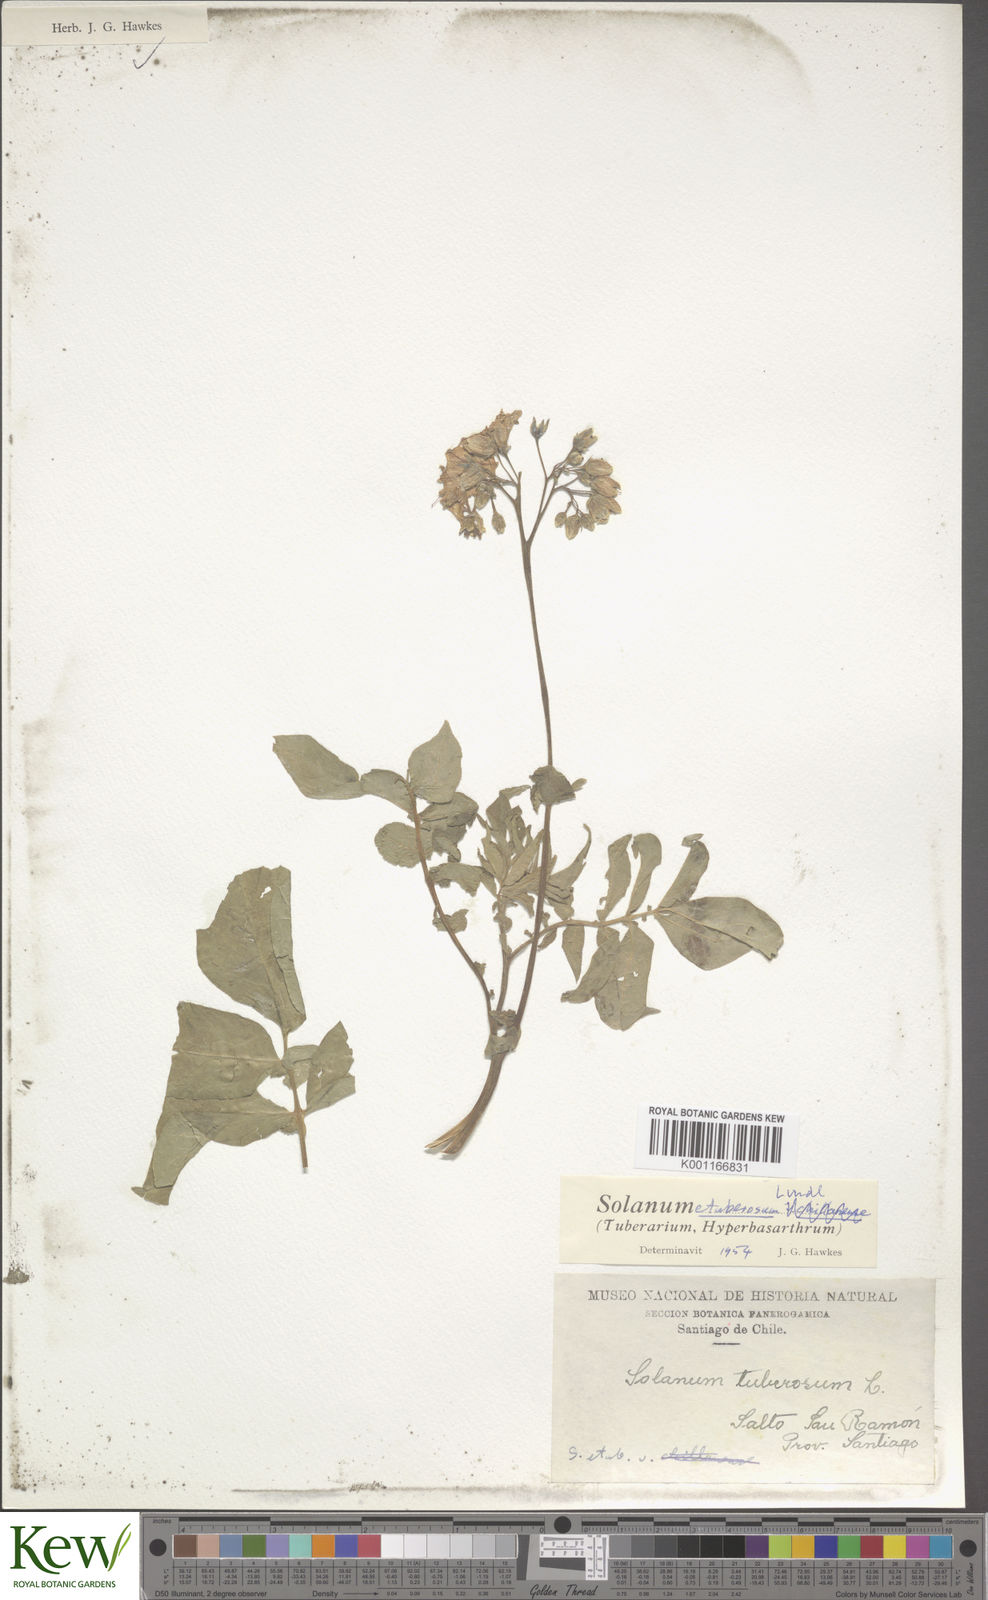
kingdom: Plantae
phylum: Tracheophyta
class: Magnoliopsida
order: Solanales
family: Solanaceae
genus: Solanum
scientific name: Solanum etuberosum
